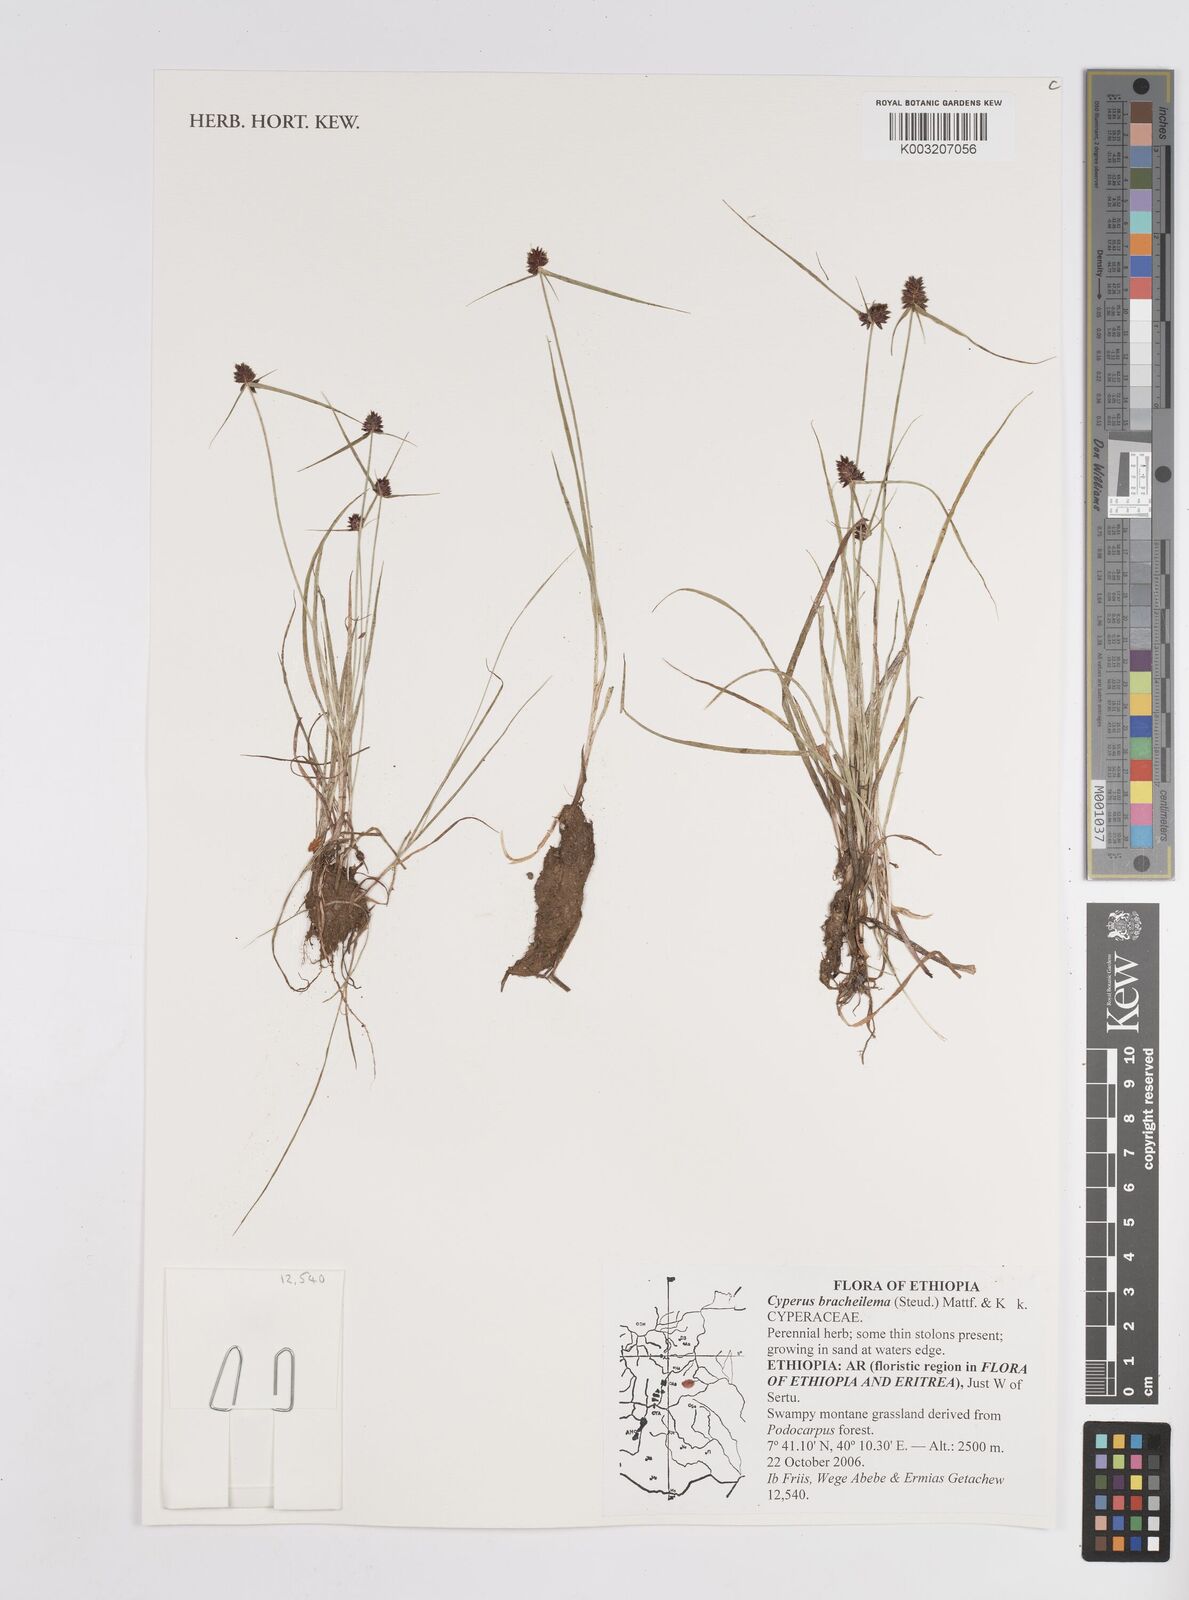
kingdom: Plantae
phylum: Tracheophyta
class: Liliopsida
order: Poales
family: Cyperaceae
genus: Cyperus
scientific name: Cyperus bracheilema
